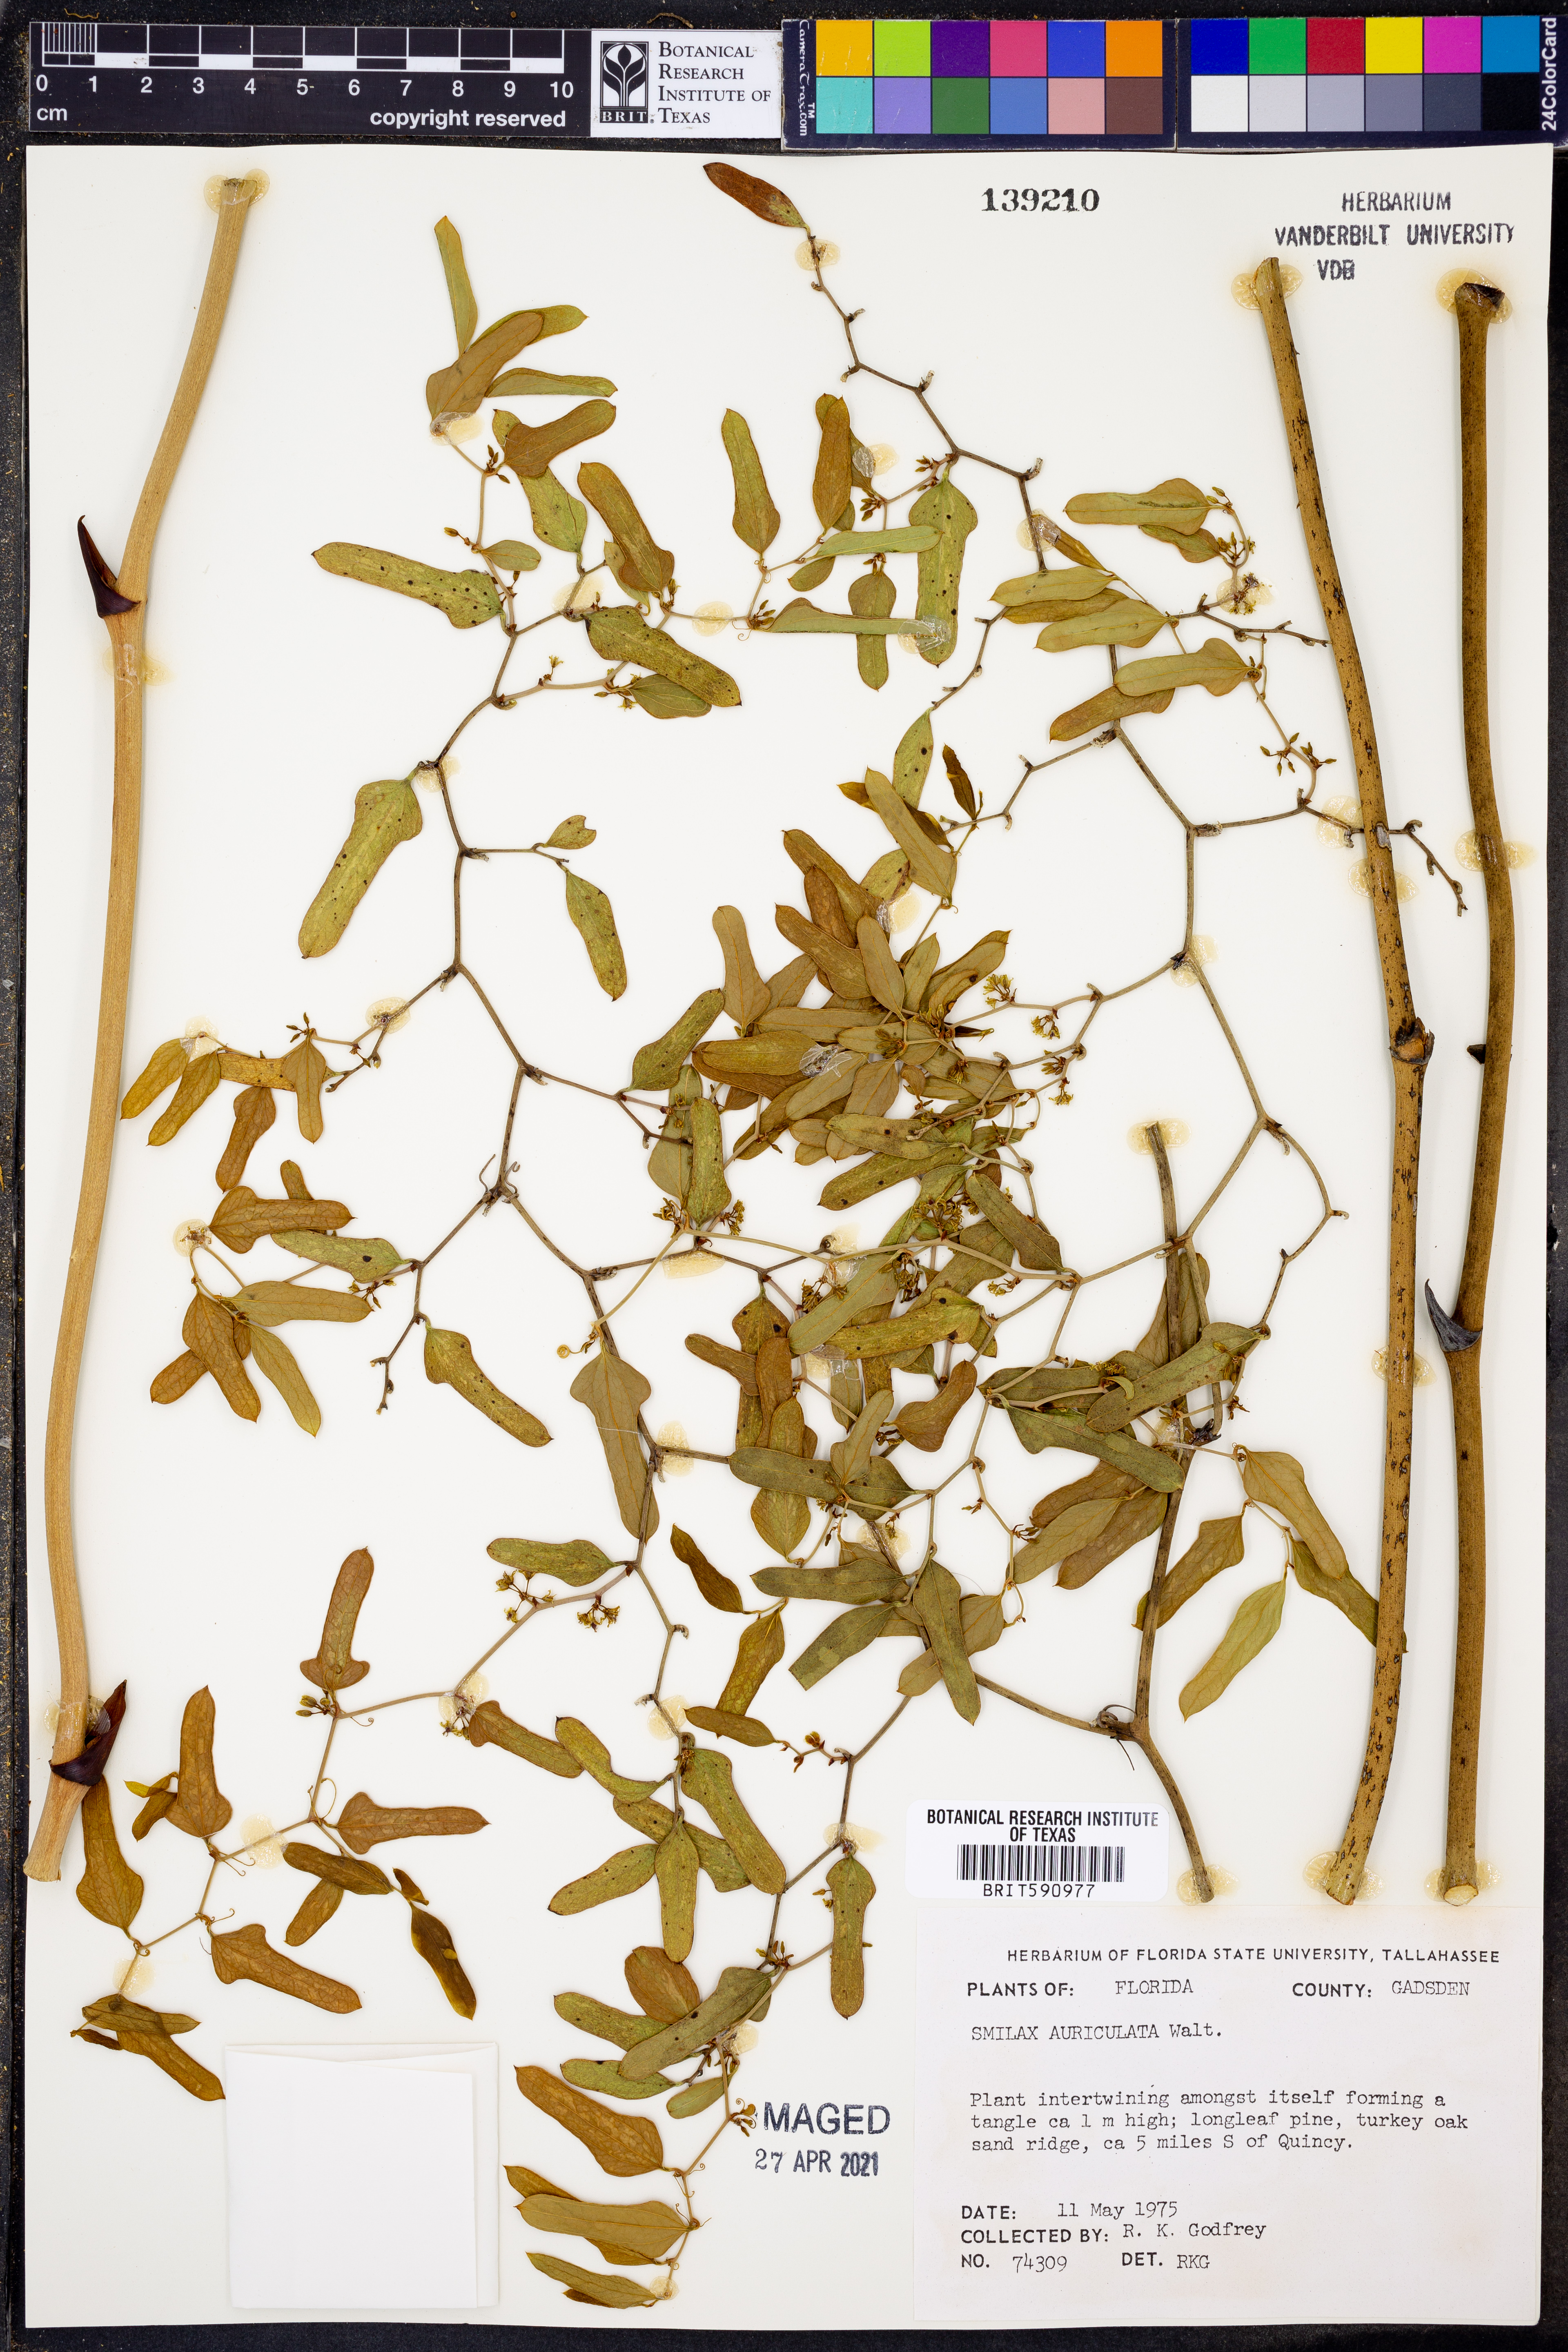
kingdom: Plantae
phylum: Tracheophyta
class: Liliopsida
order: Liliales
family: Smilacaceae
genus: Smilax
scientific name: Smilax auriculata
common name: Wild bamboo
